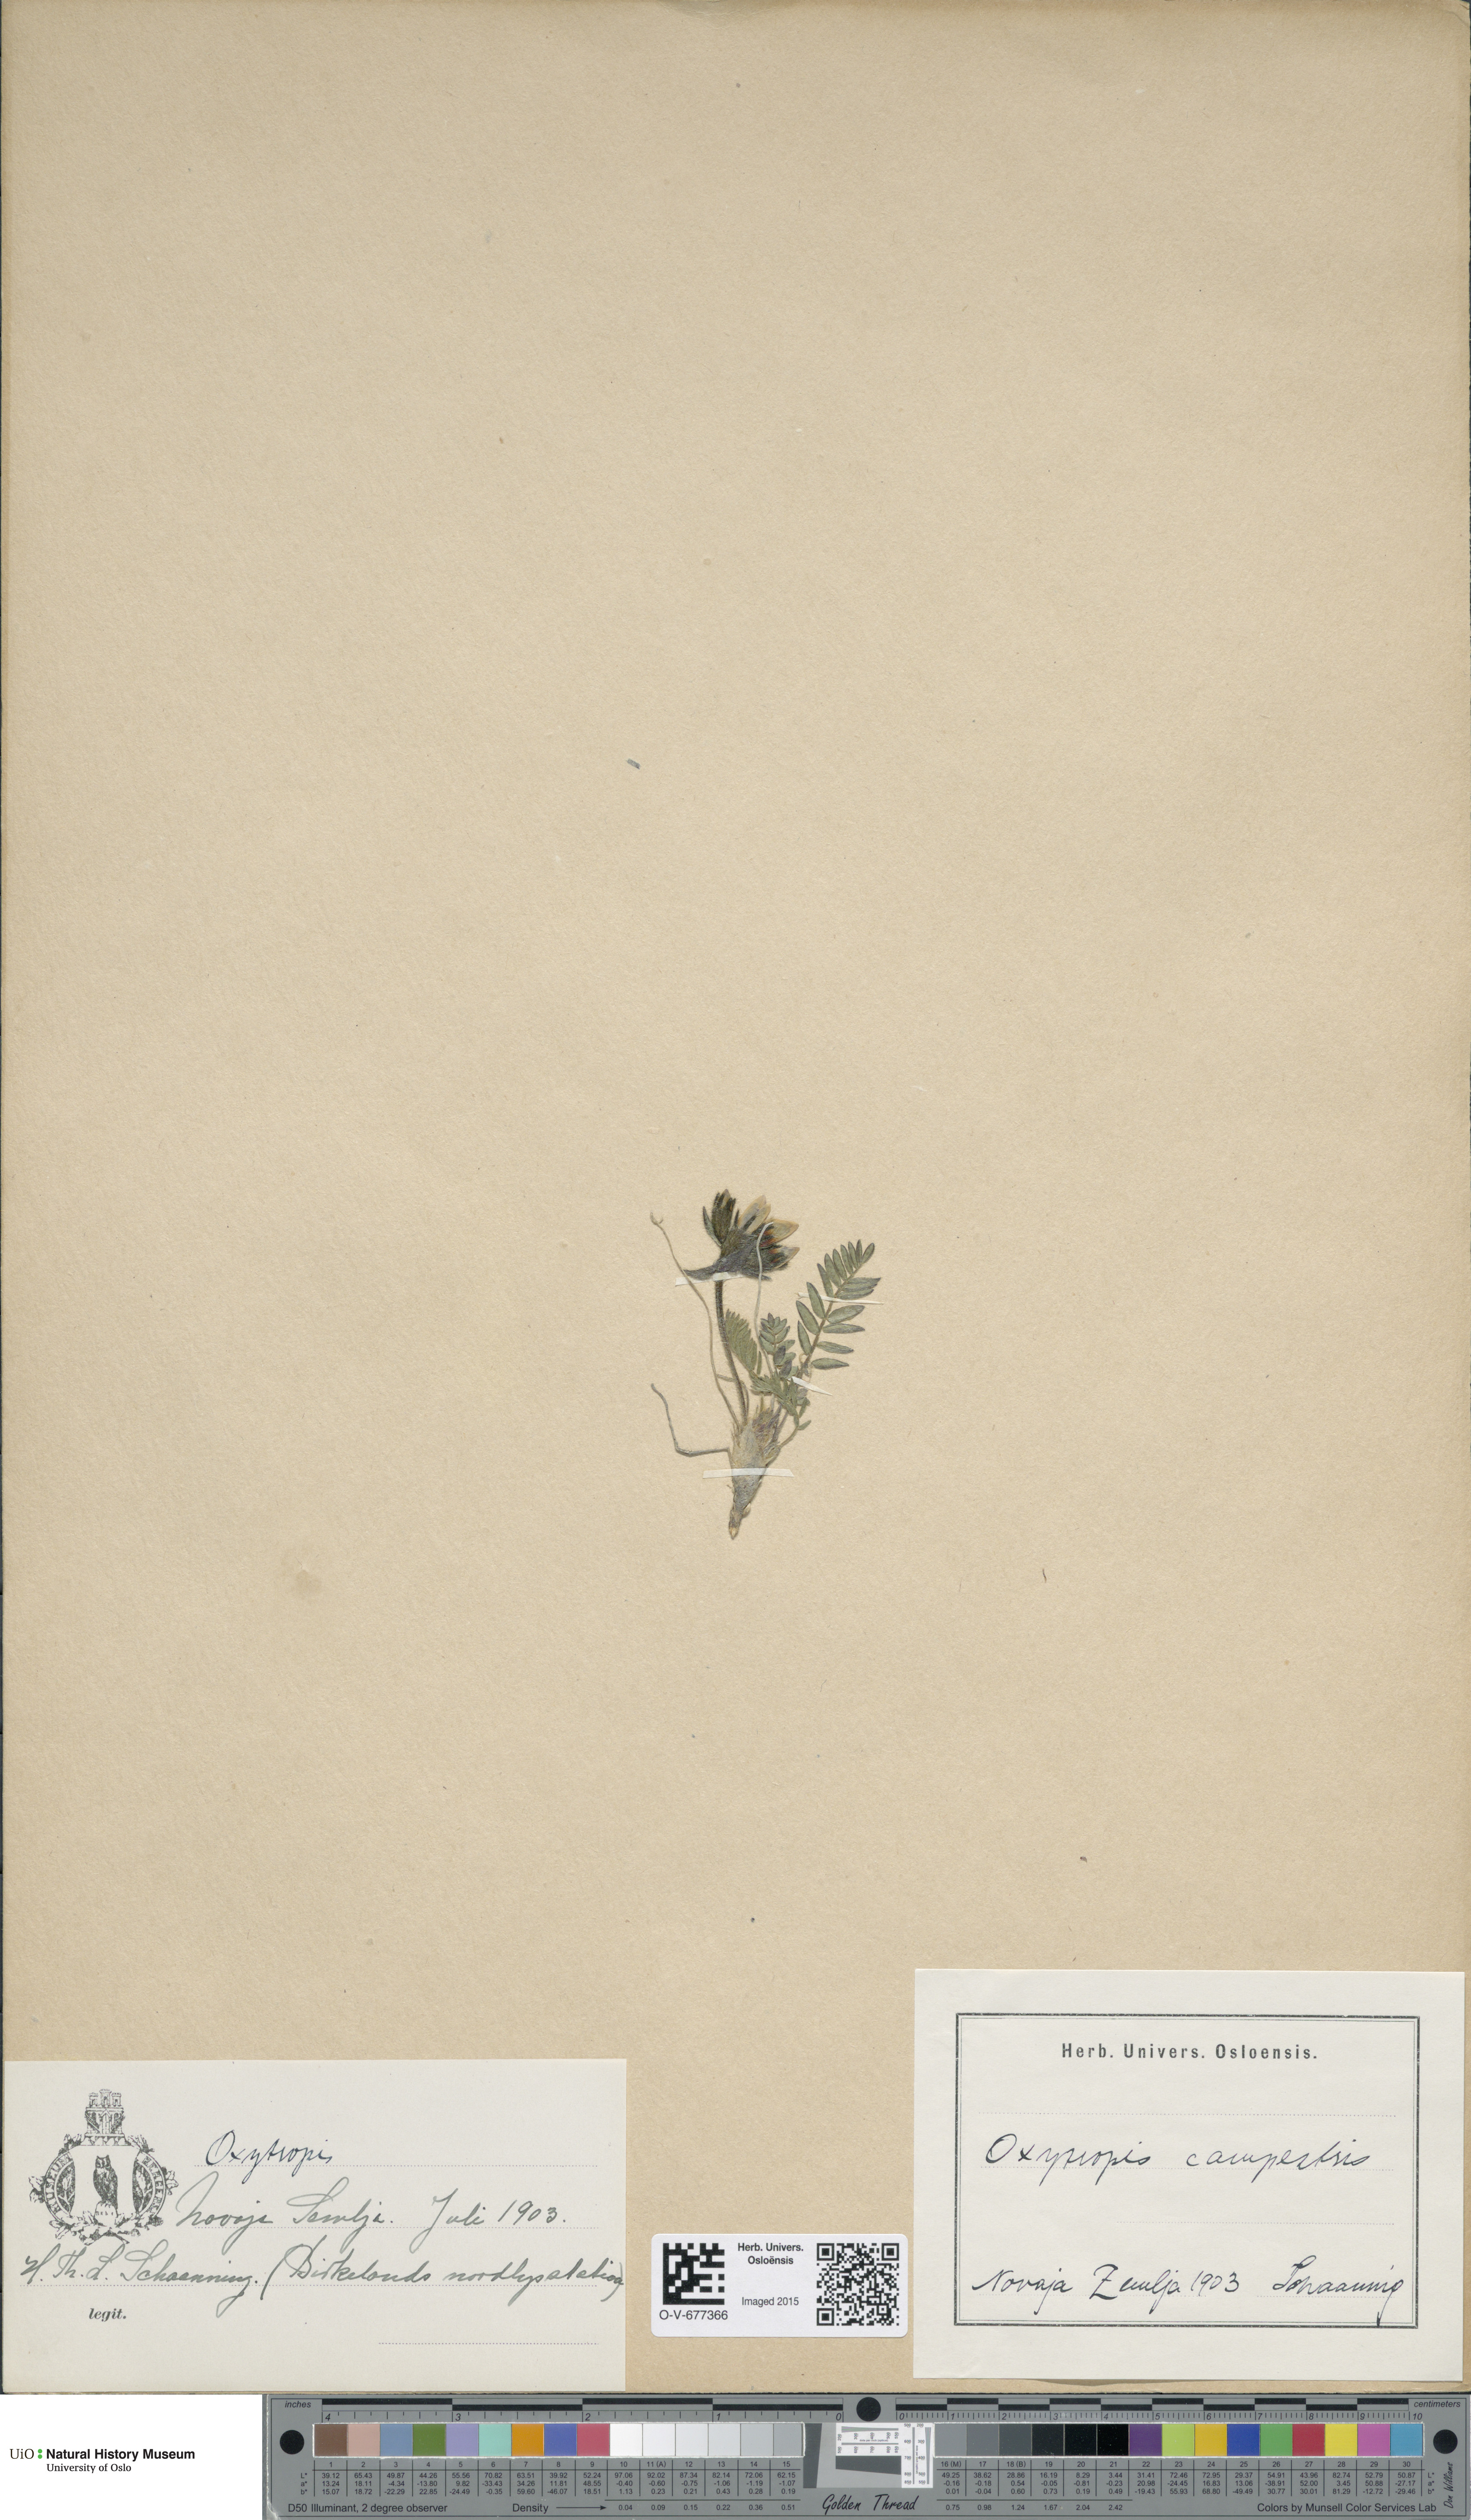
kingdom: Plantae
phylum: Tracheophyta
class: Magnoliopsida
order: Fabales
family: Fabaceae
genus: Oxytropis
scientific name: Oxytropis campestris
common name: Field locoweed
